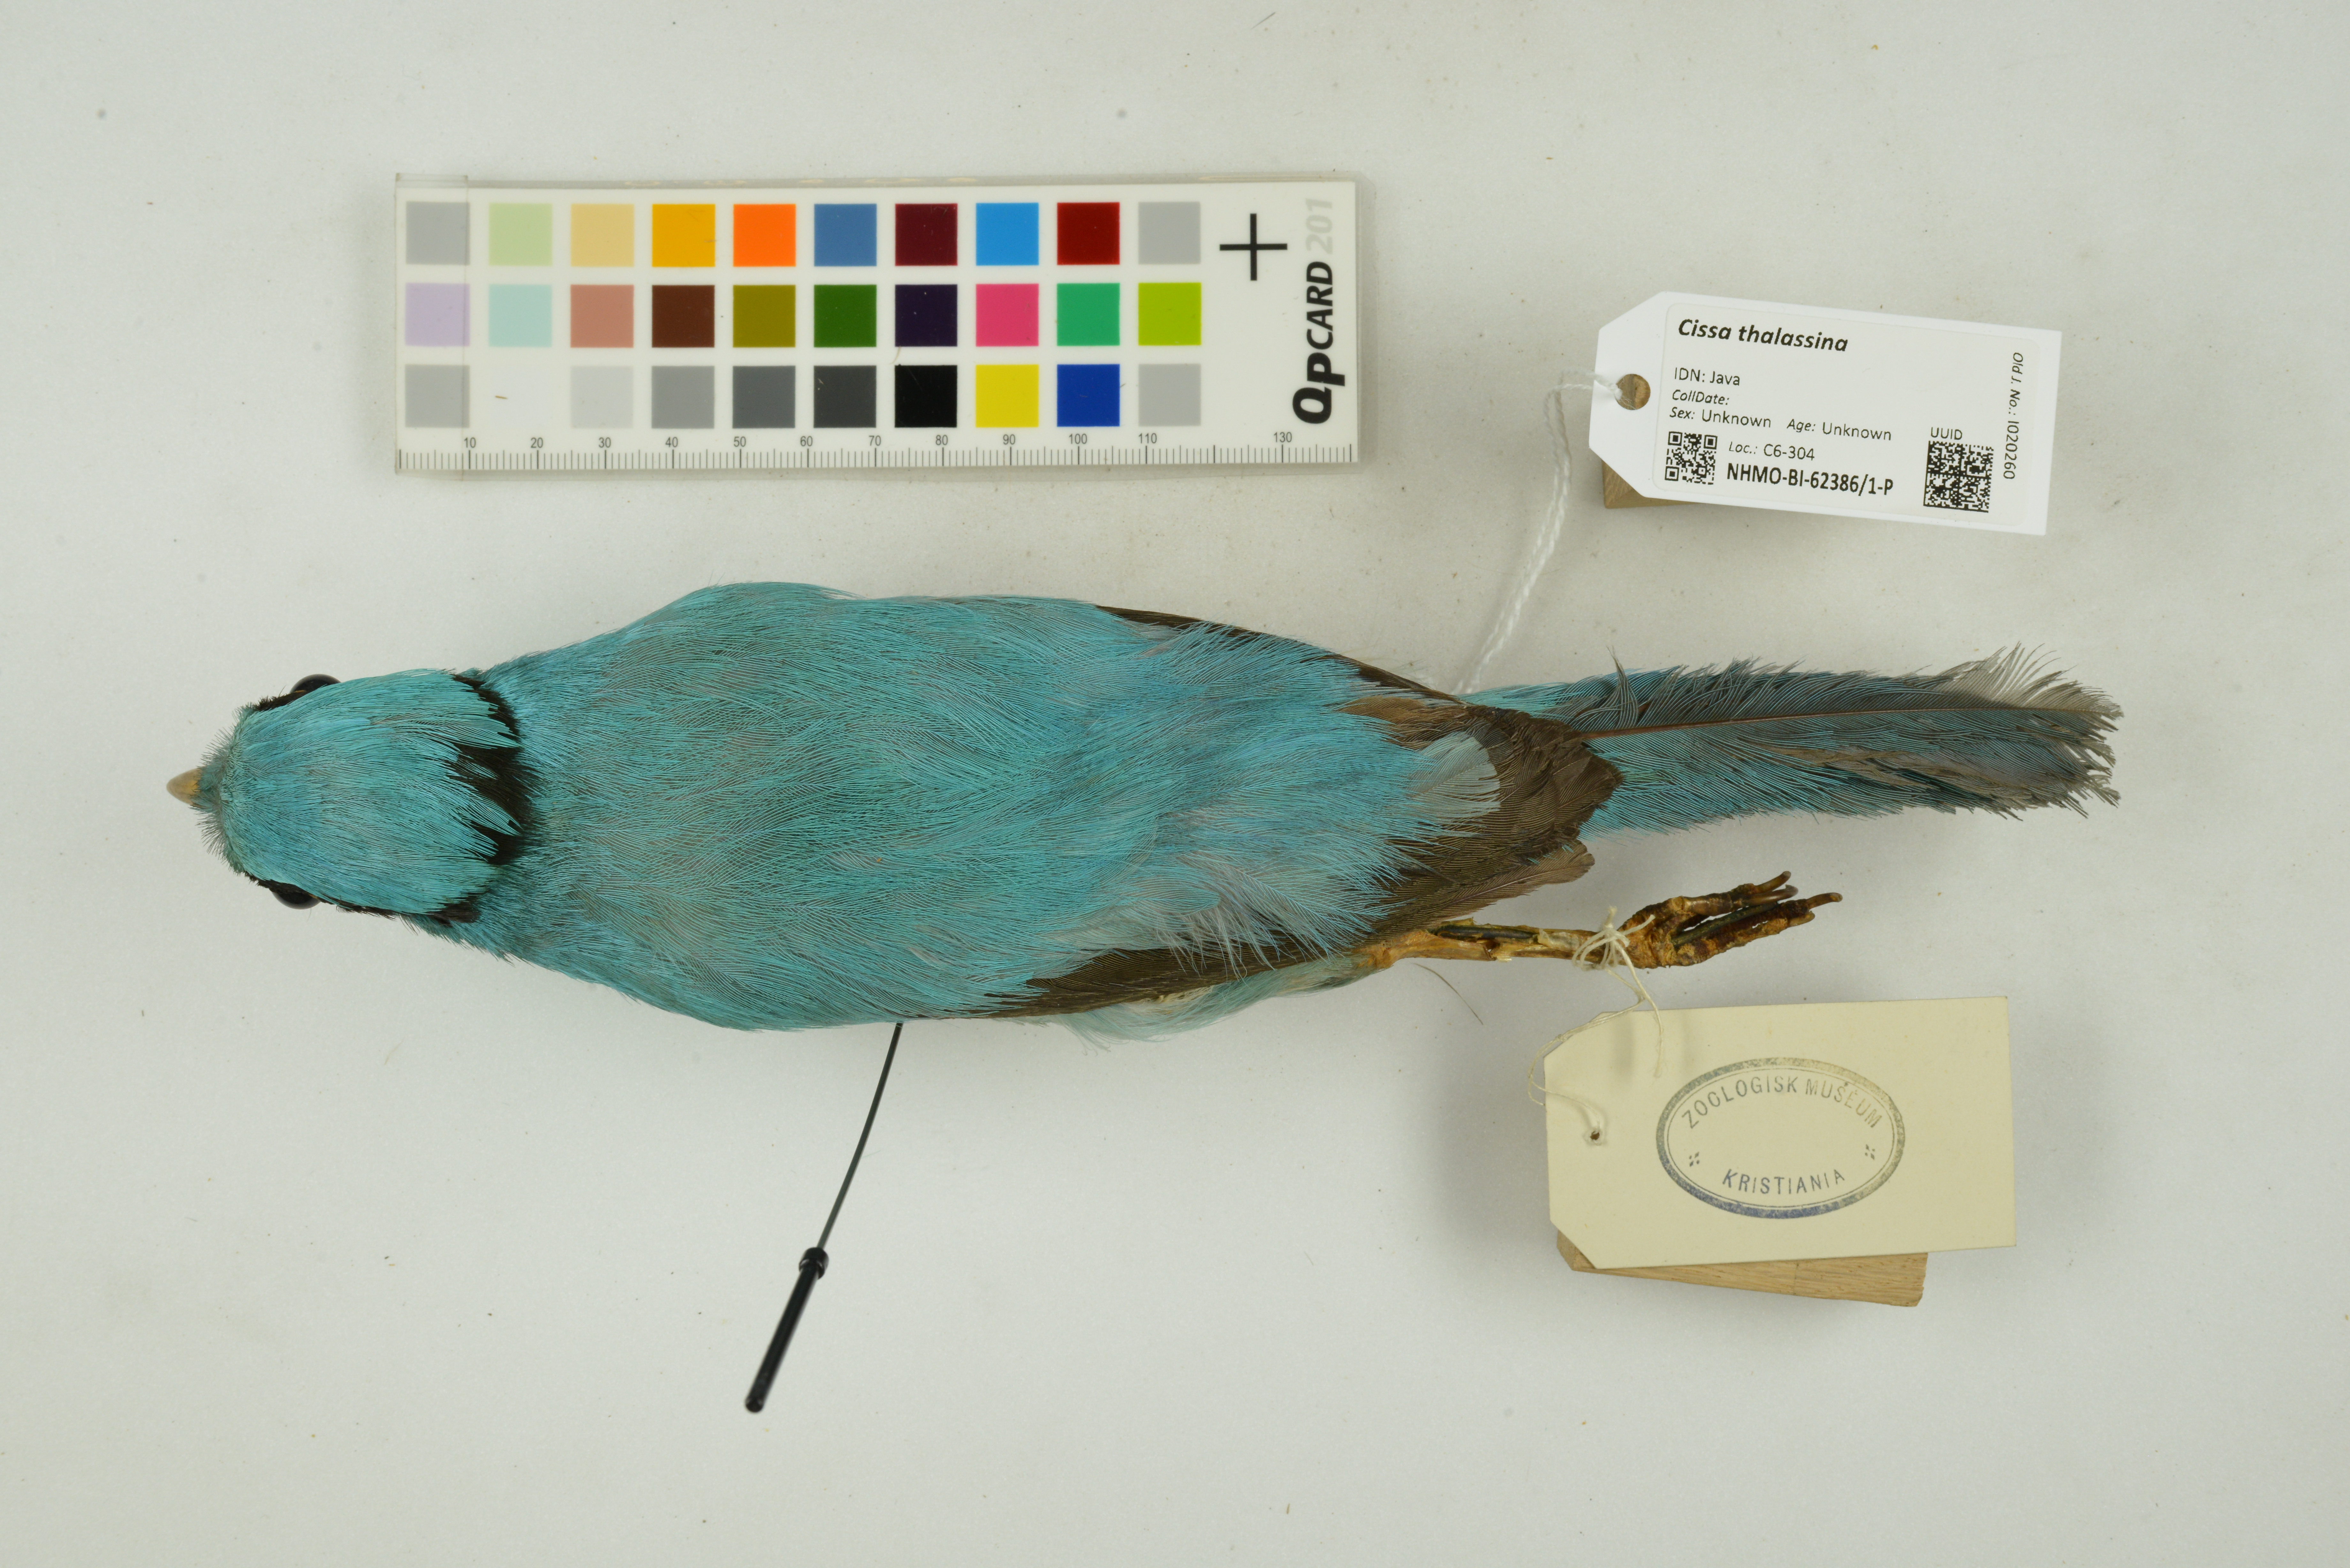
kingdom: Animalia
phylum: Chordata
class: Aves
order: Passeriformes
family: Corvidae
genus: Cissa
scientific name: Cissa thalassina
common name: Short-tailed green magpie
